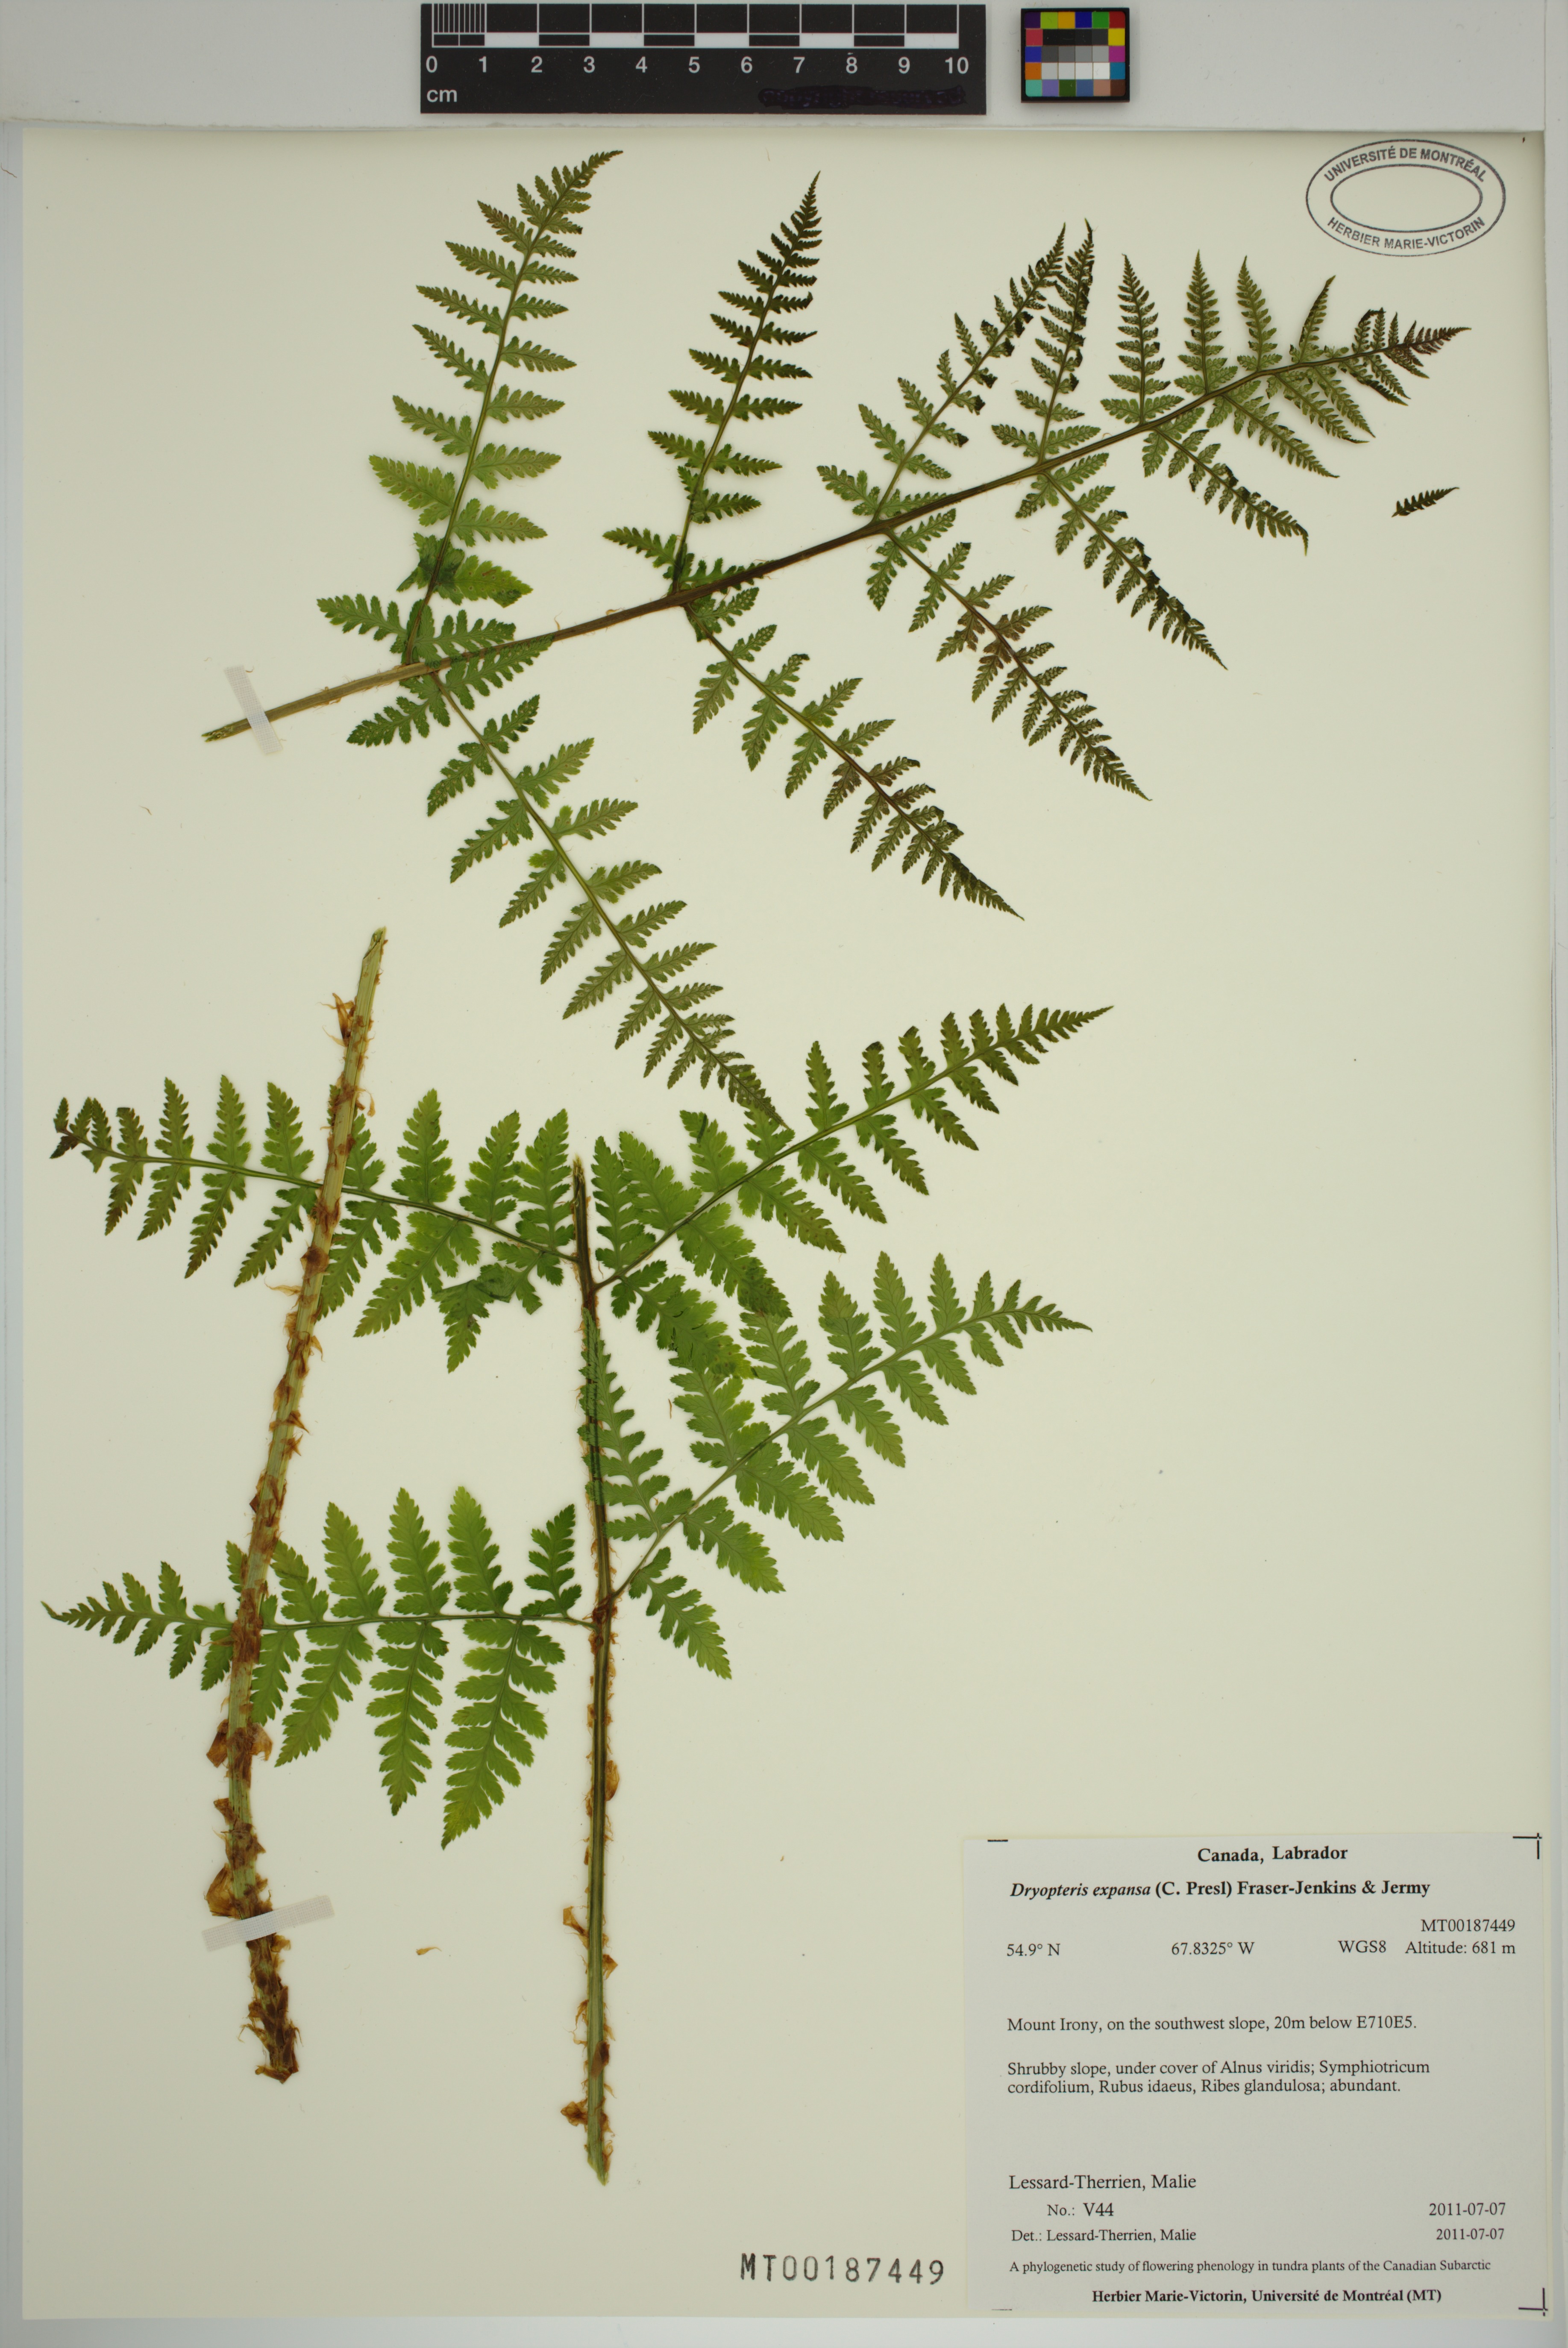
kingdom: Plantae
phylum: Tracheophyta
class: Polypodiopsida
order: Polypodiales
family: Dryopteridaceae
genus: Dryopteris
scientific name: Dryopteris expansa
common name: Northern buckler fern
